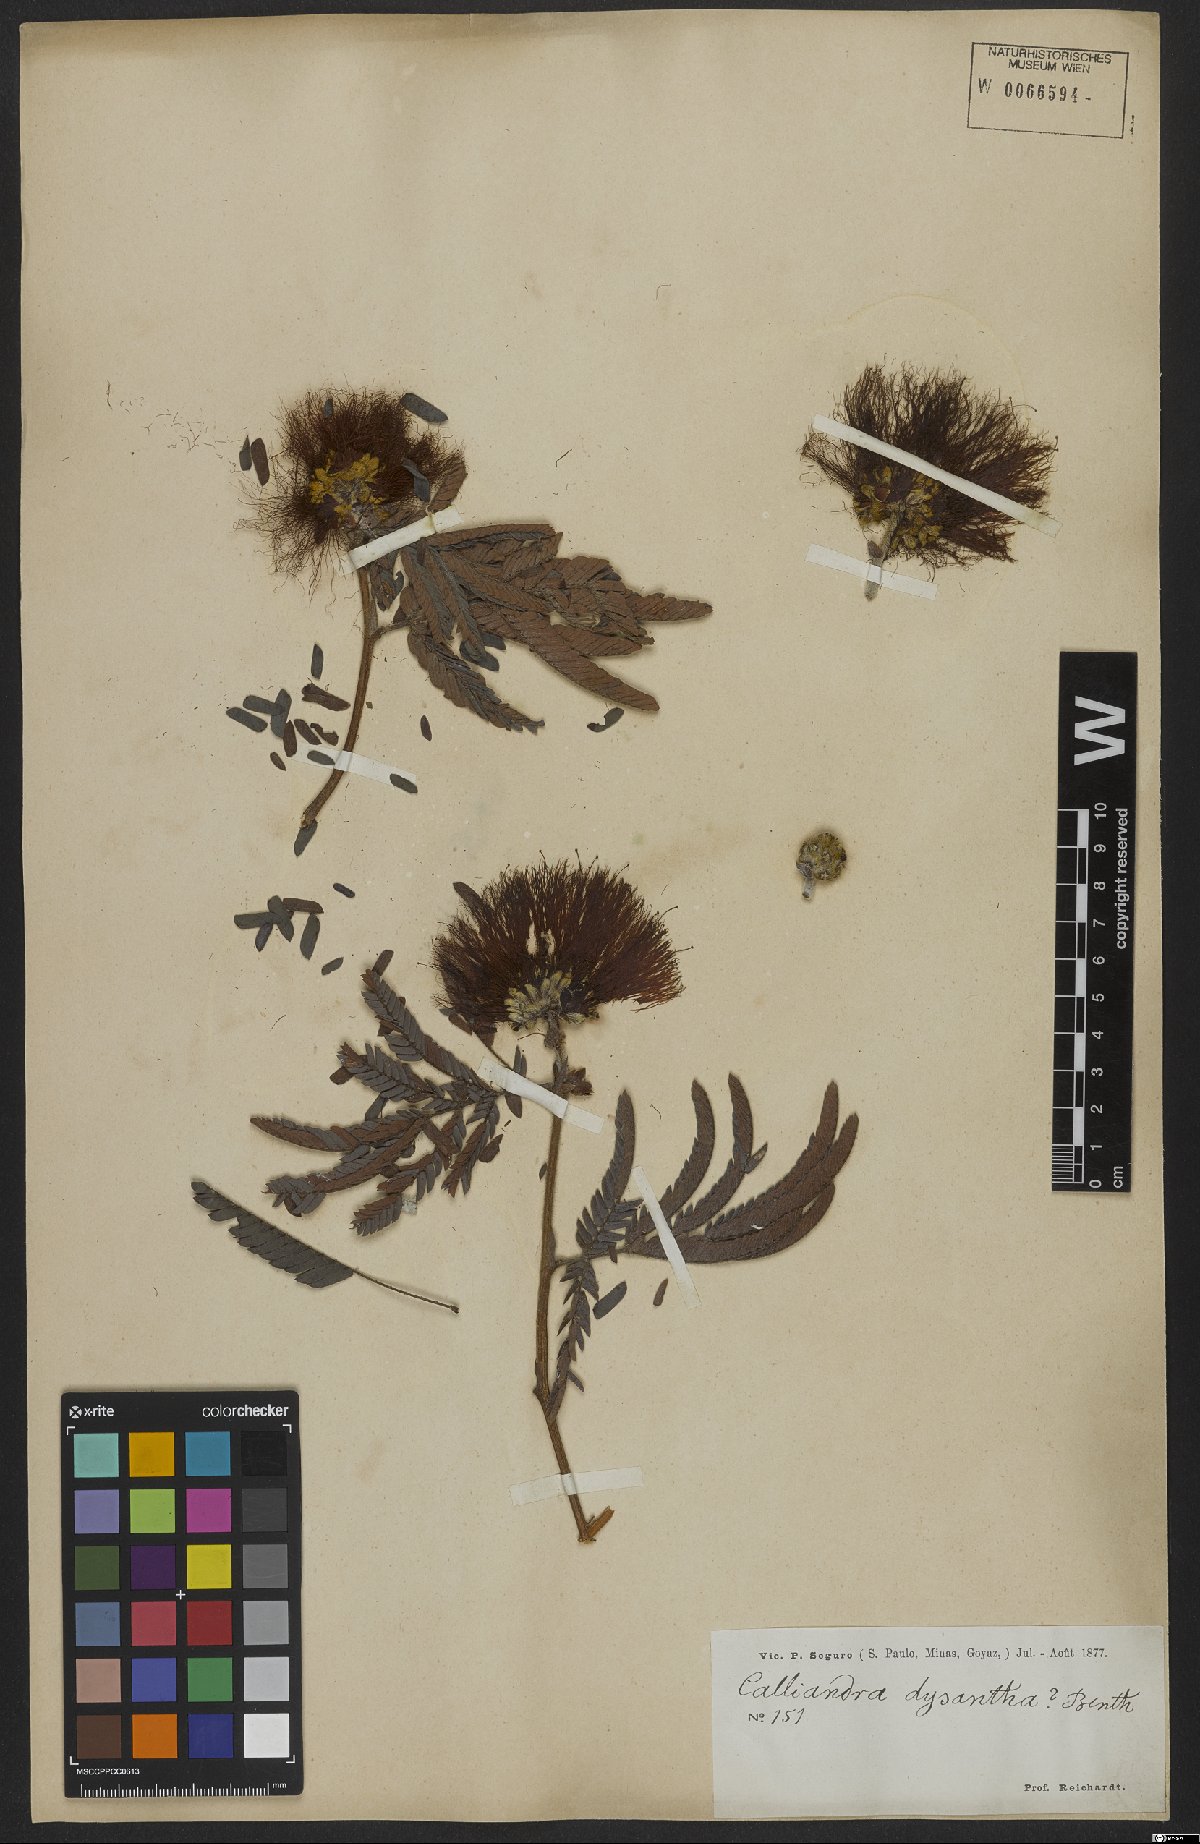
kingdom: Plantae
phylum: Tracheophyta
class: Magnoliopsida
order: Fabales
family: Fabaceae
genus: Calliandra
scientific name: Calliandra dysantha
